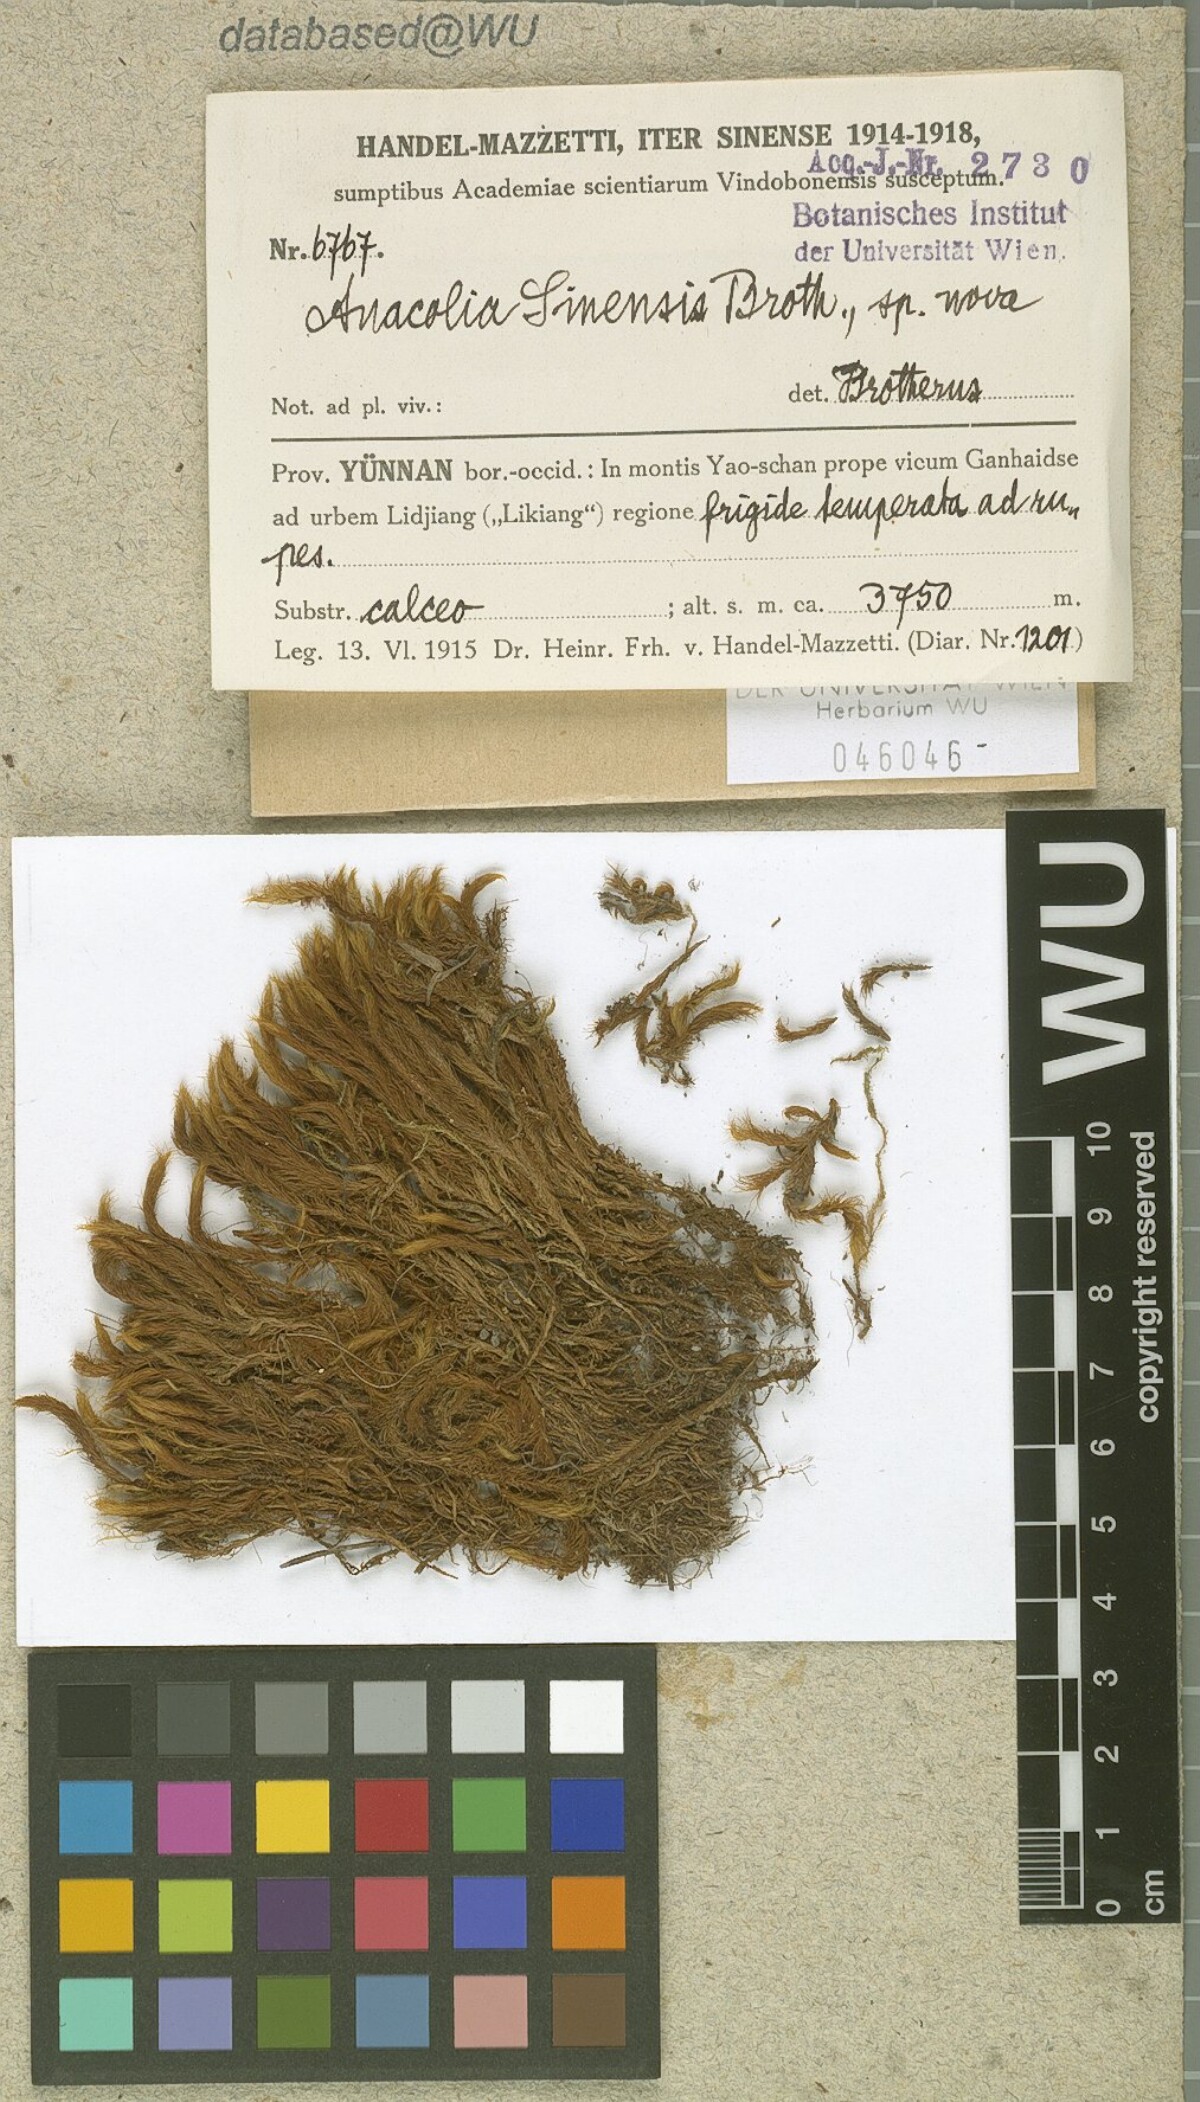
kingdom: Plantae
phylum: Bryophyta
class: Bryopsida
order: Bartramiales
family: Bartramiaceae
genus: Flowersia
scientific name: Flowersia sinensis
